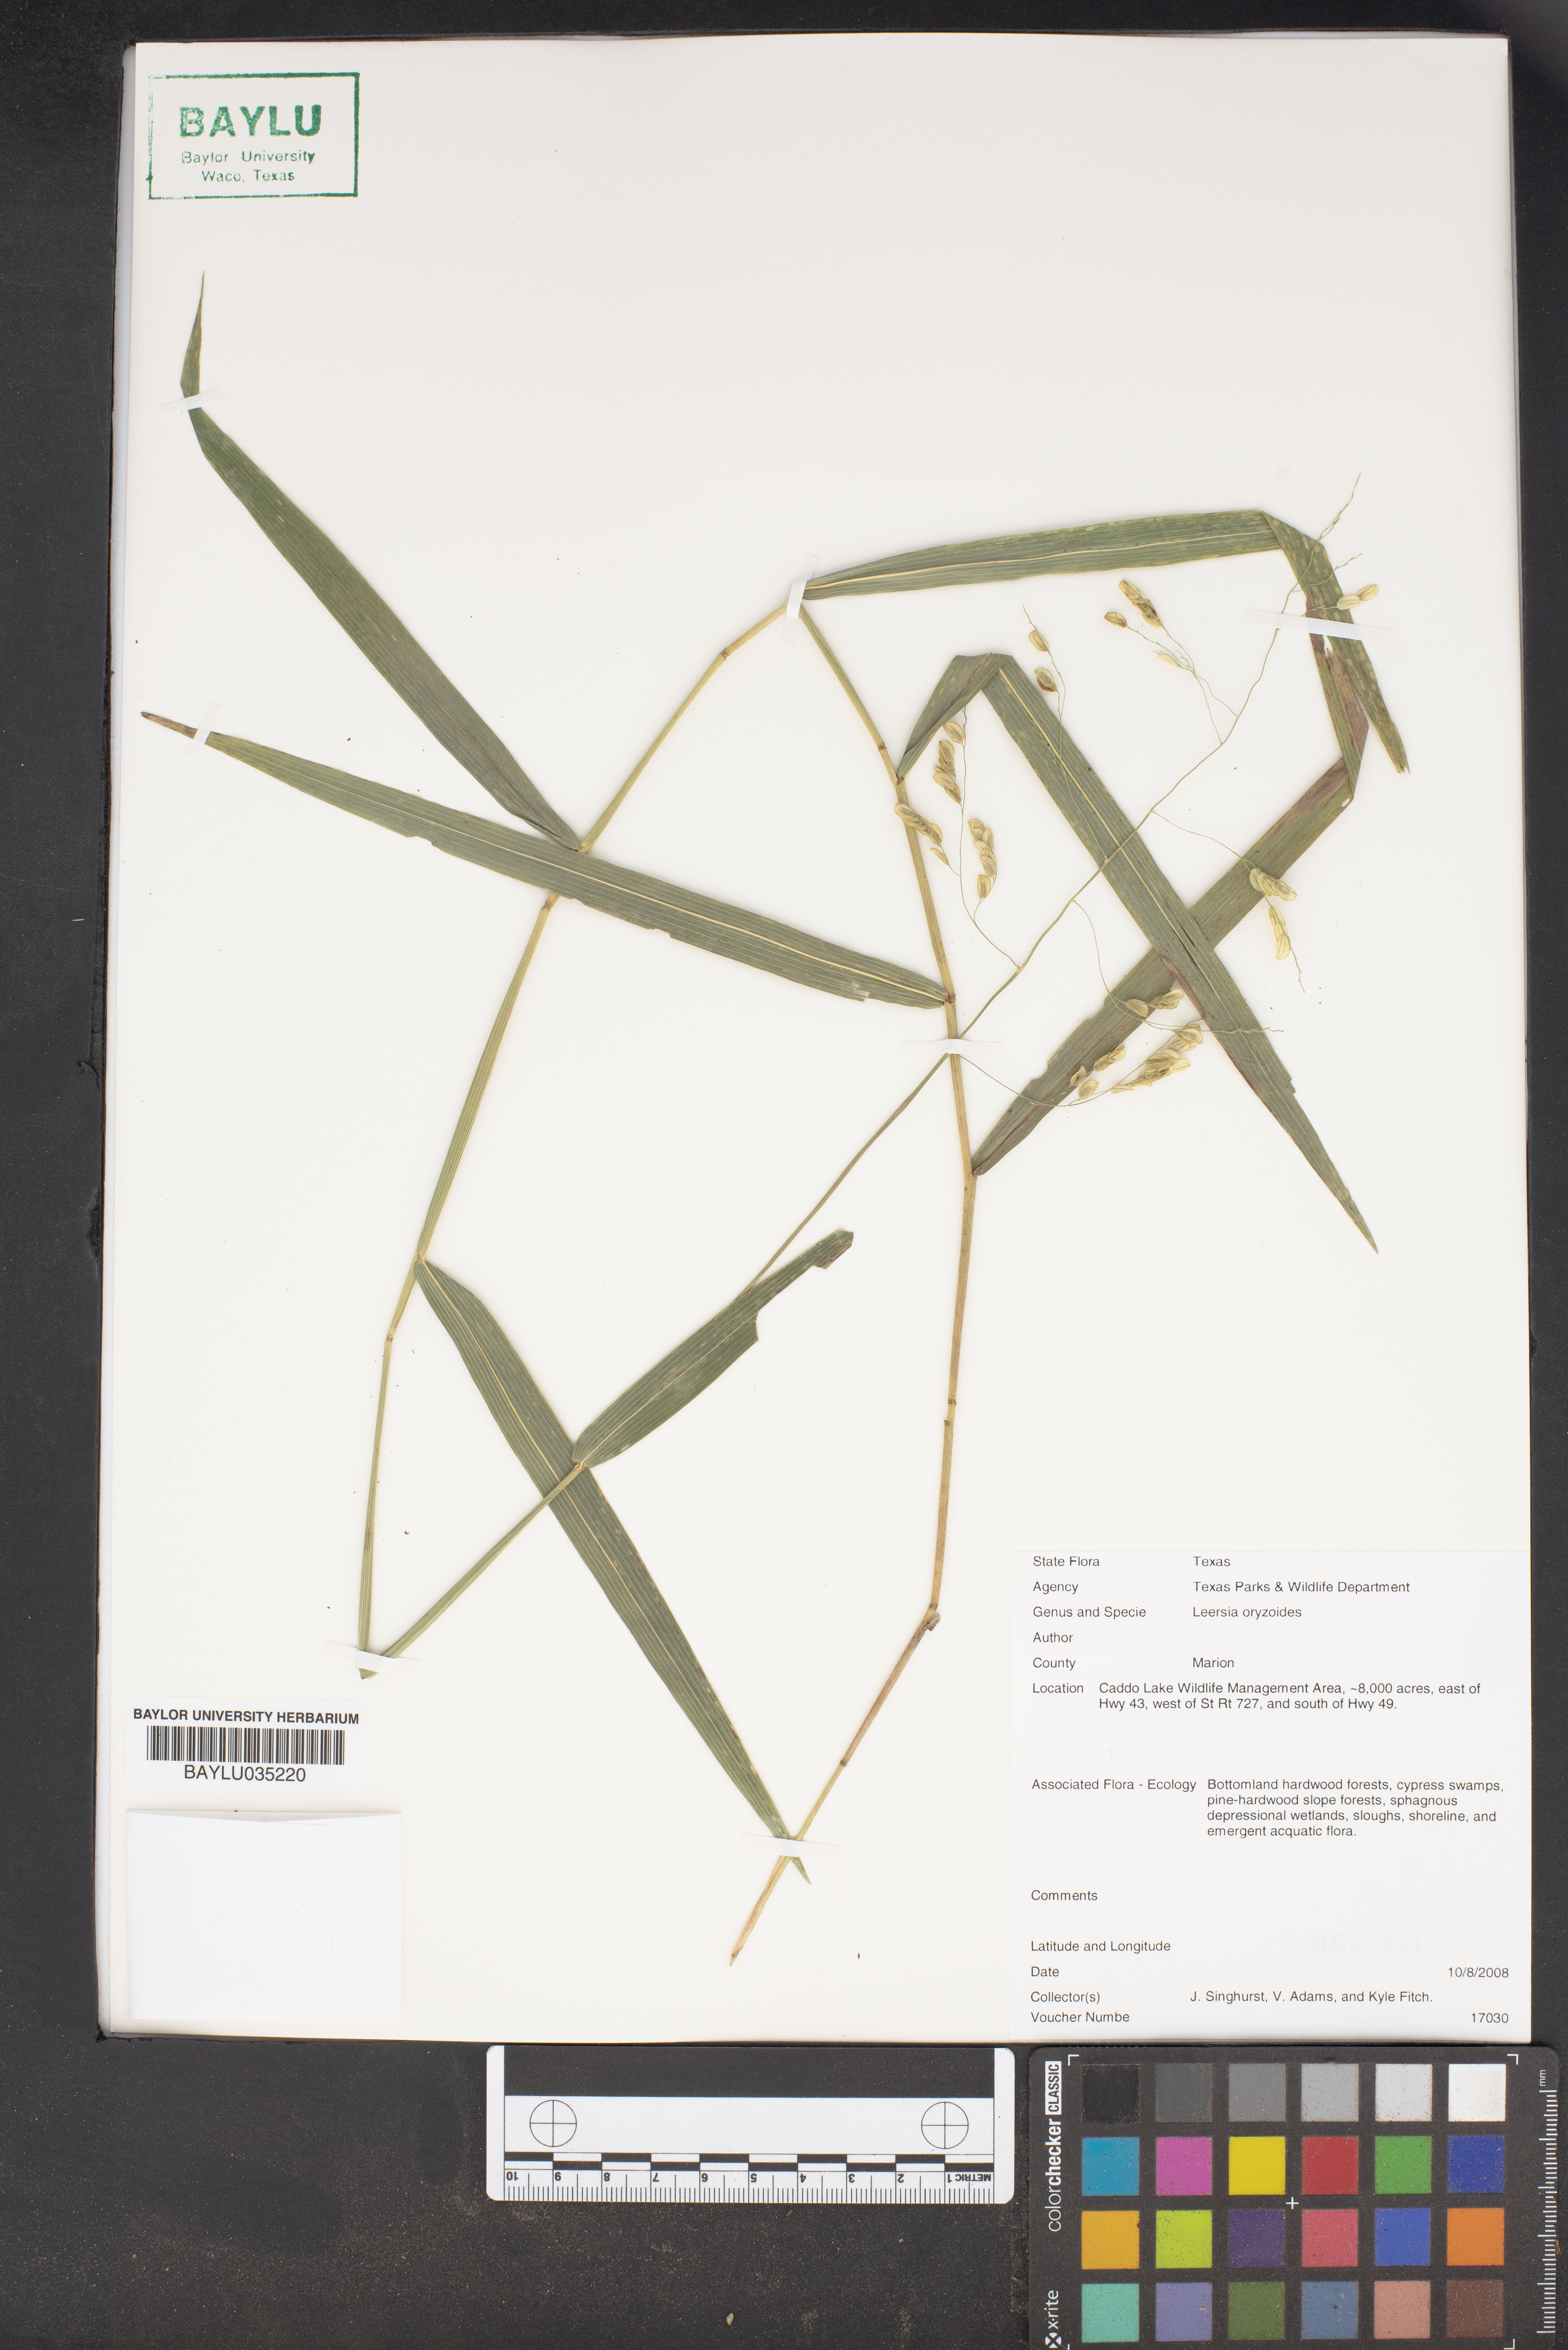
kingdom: Plantae
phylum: Tracheophyta
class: Liliopsida
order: Poales
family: Poaceae
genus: Leersia
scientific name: Leersia oryzoides
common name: Cut-grass
